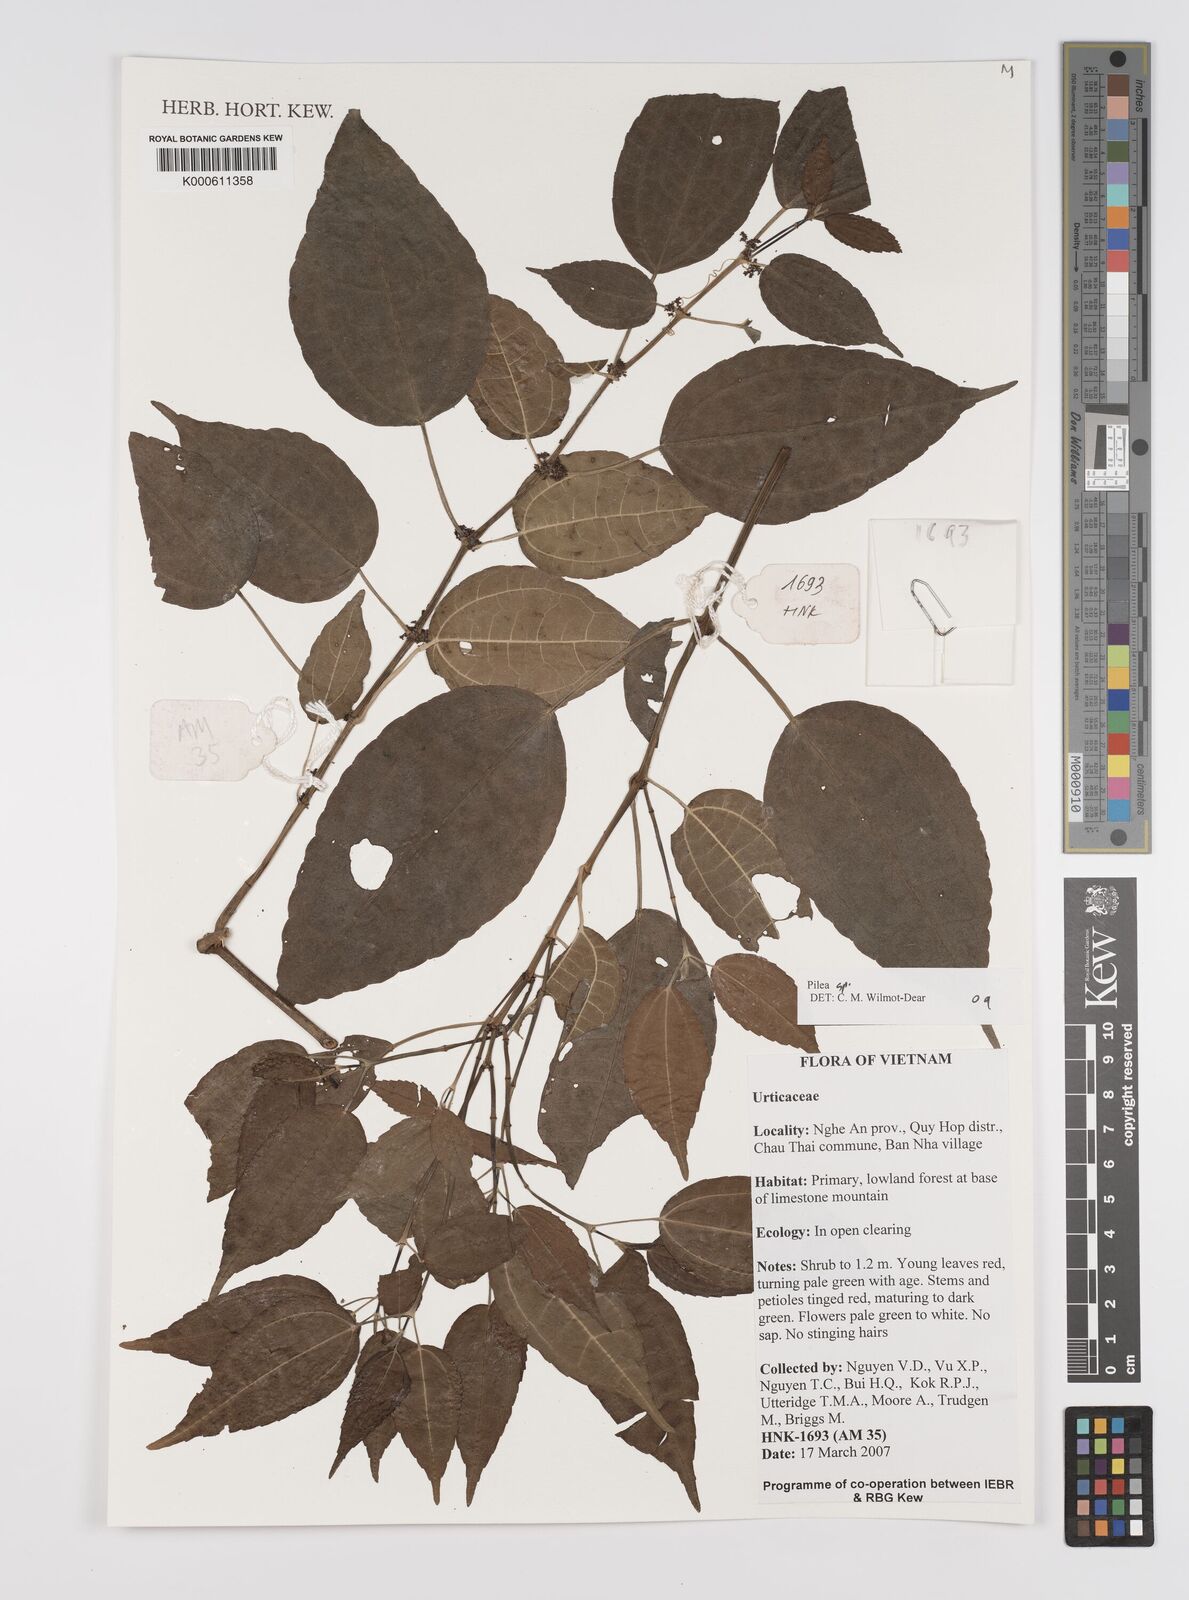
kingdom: Plantae
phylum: Tracheophyta
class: Magnoliopsida
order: Rosales
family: Urticaceae
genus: Pilea
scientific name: Pilea
